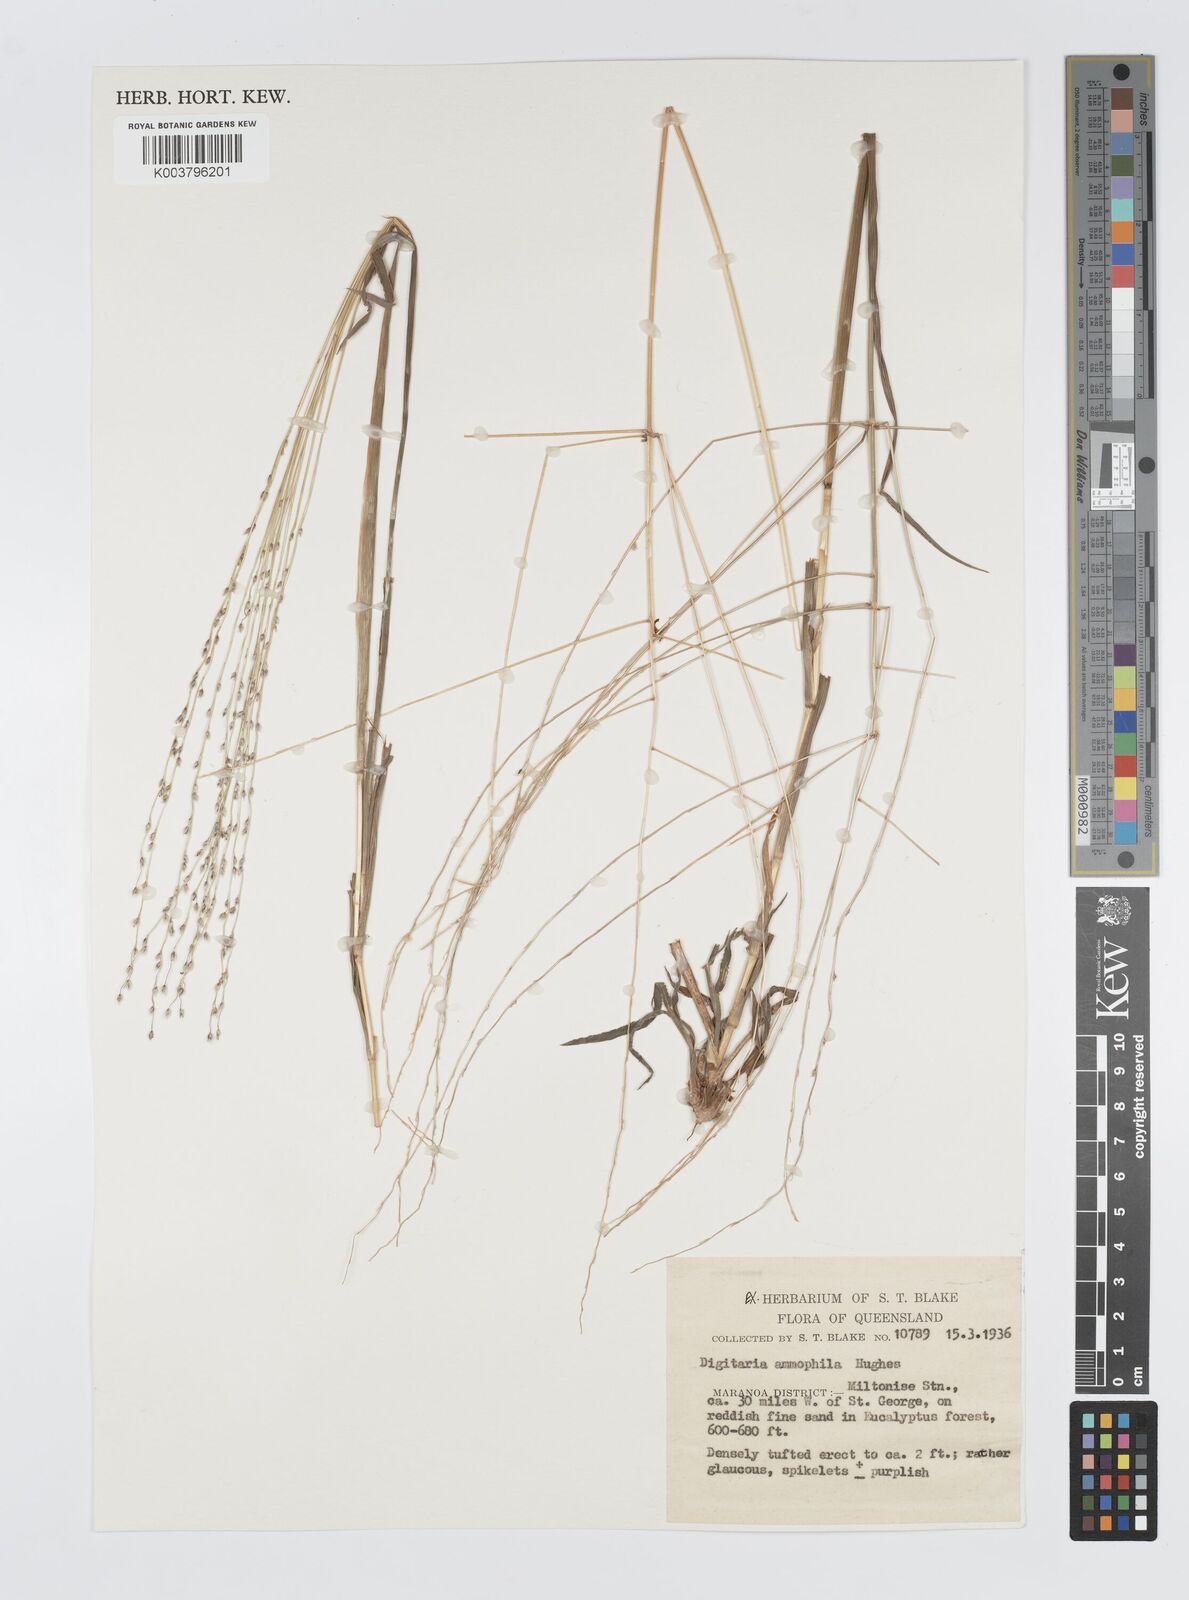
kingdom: Plantae
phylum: Tracheophyta
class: Liliopsida
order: Poales
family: Poaceae
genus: Digitaria
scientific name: Digitaria ammophila
